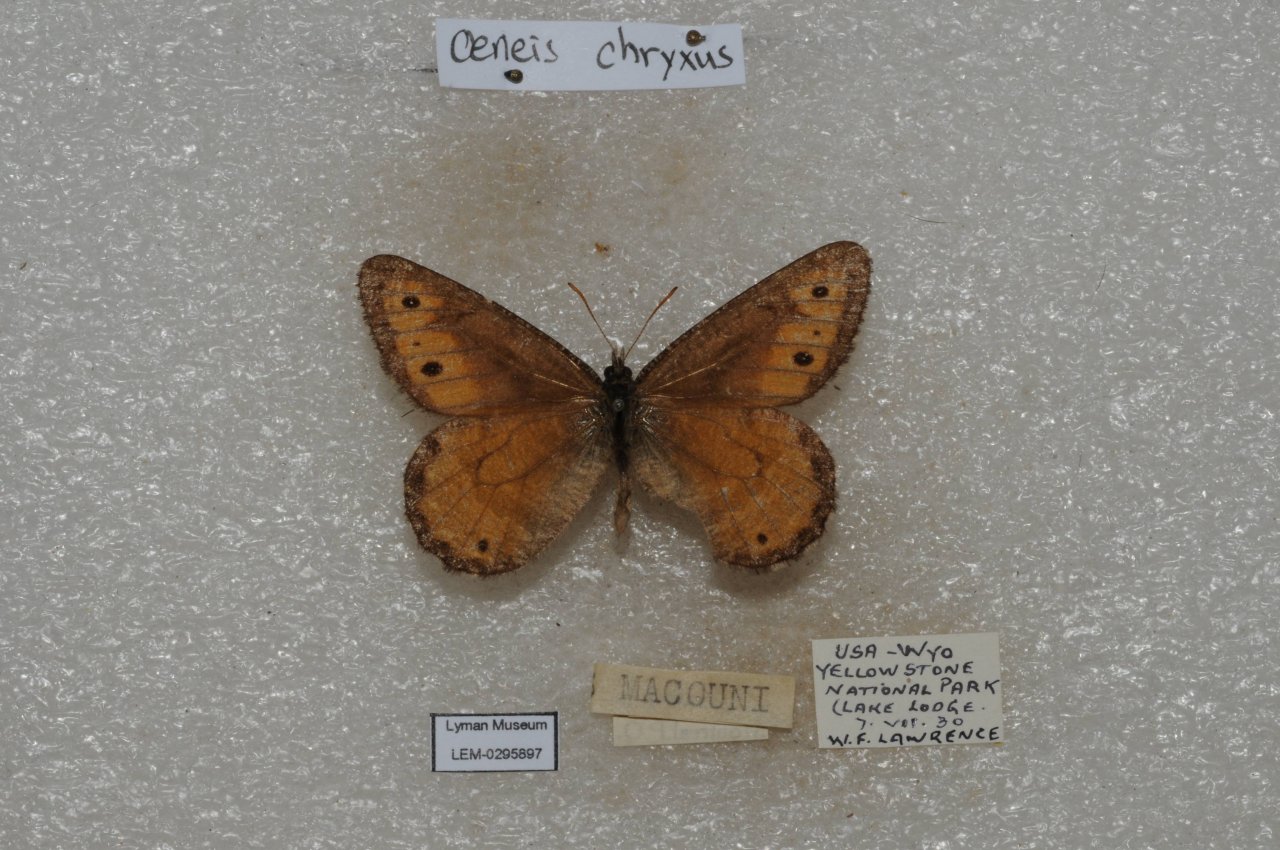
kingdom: Animalia
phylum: Arthropoda
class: Insecta
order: Lepidoptera
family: Nymphalidae
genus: Oeneis
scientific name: Oeneis chryxus
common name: Chryxus Arctic
